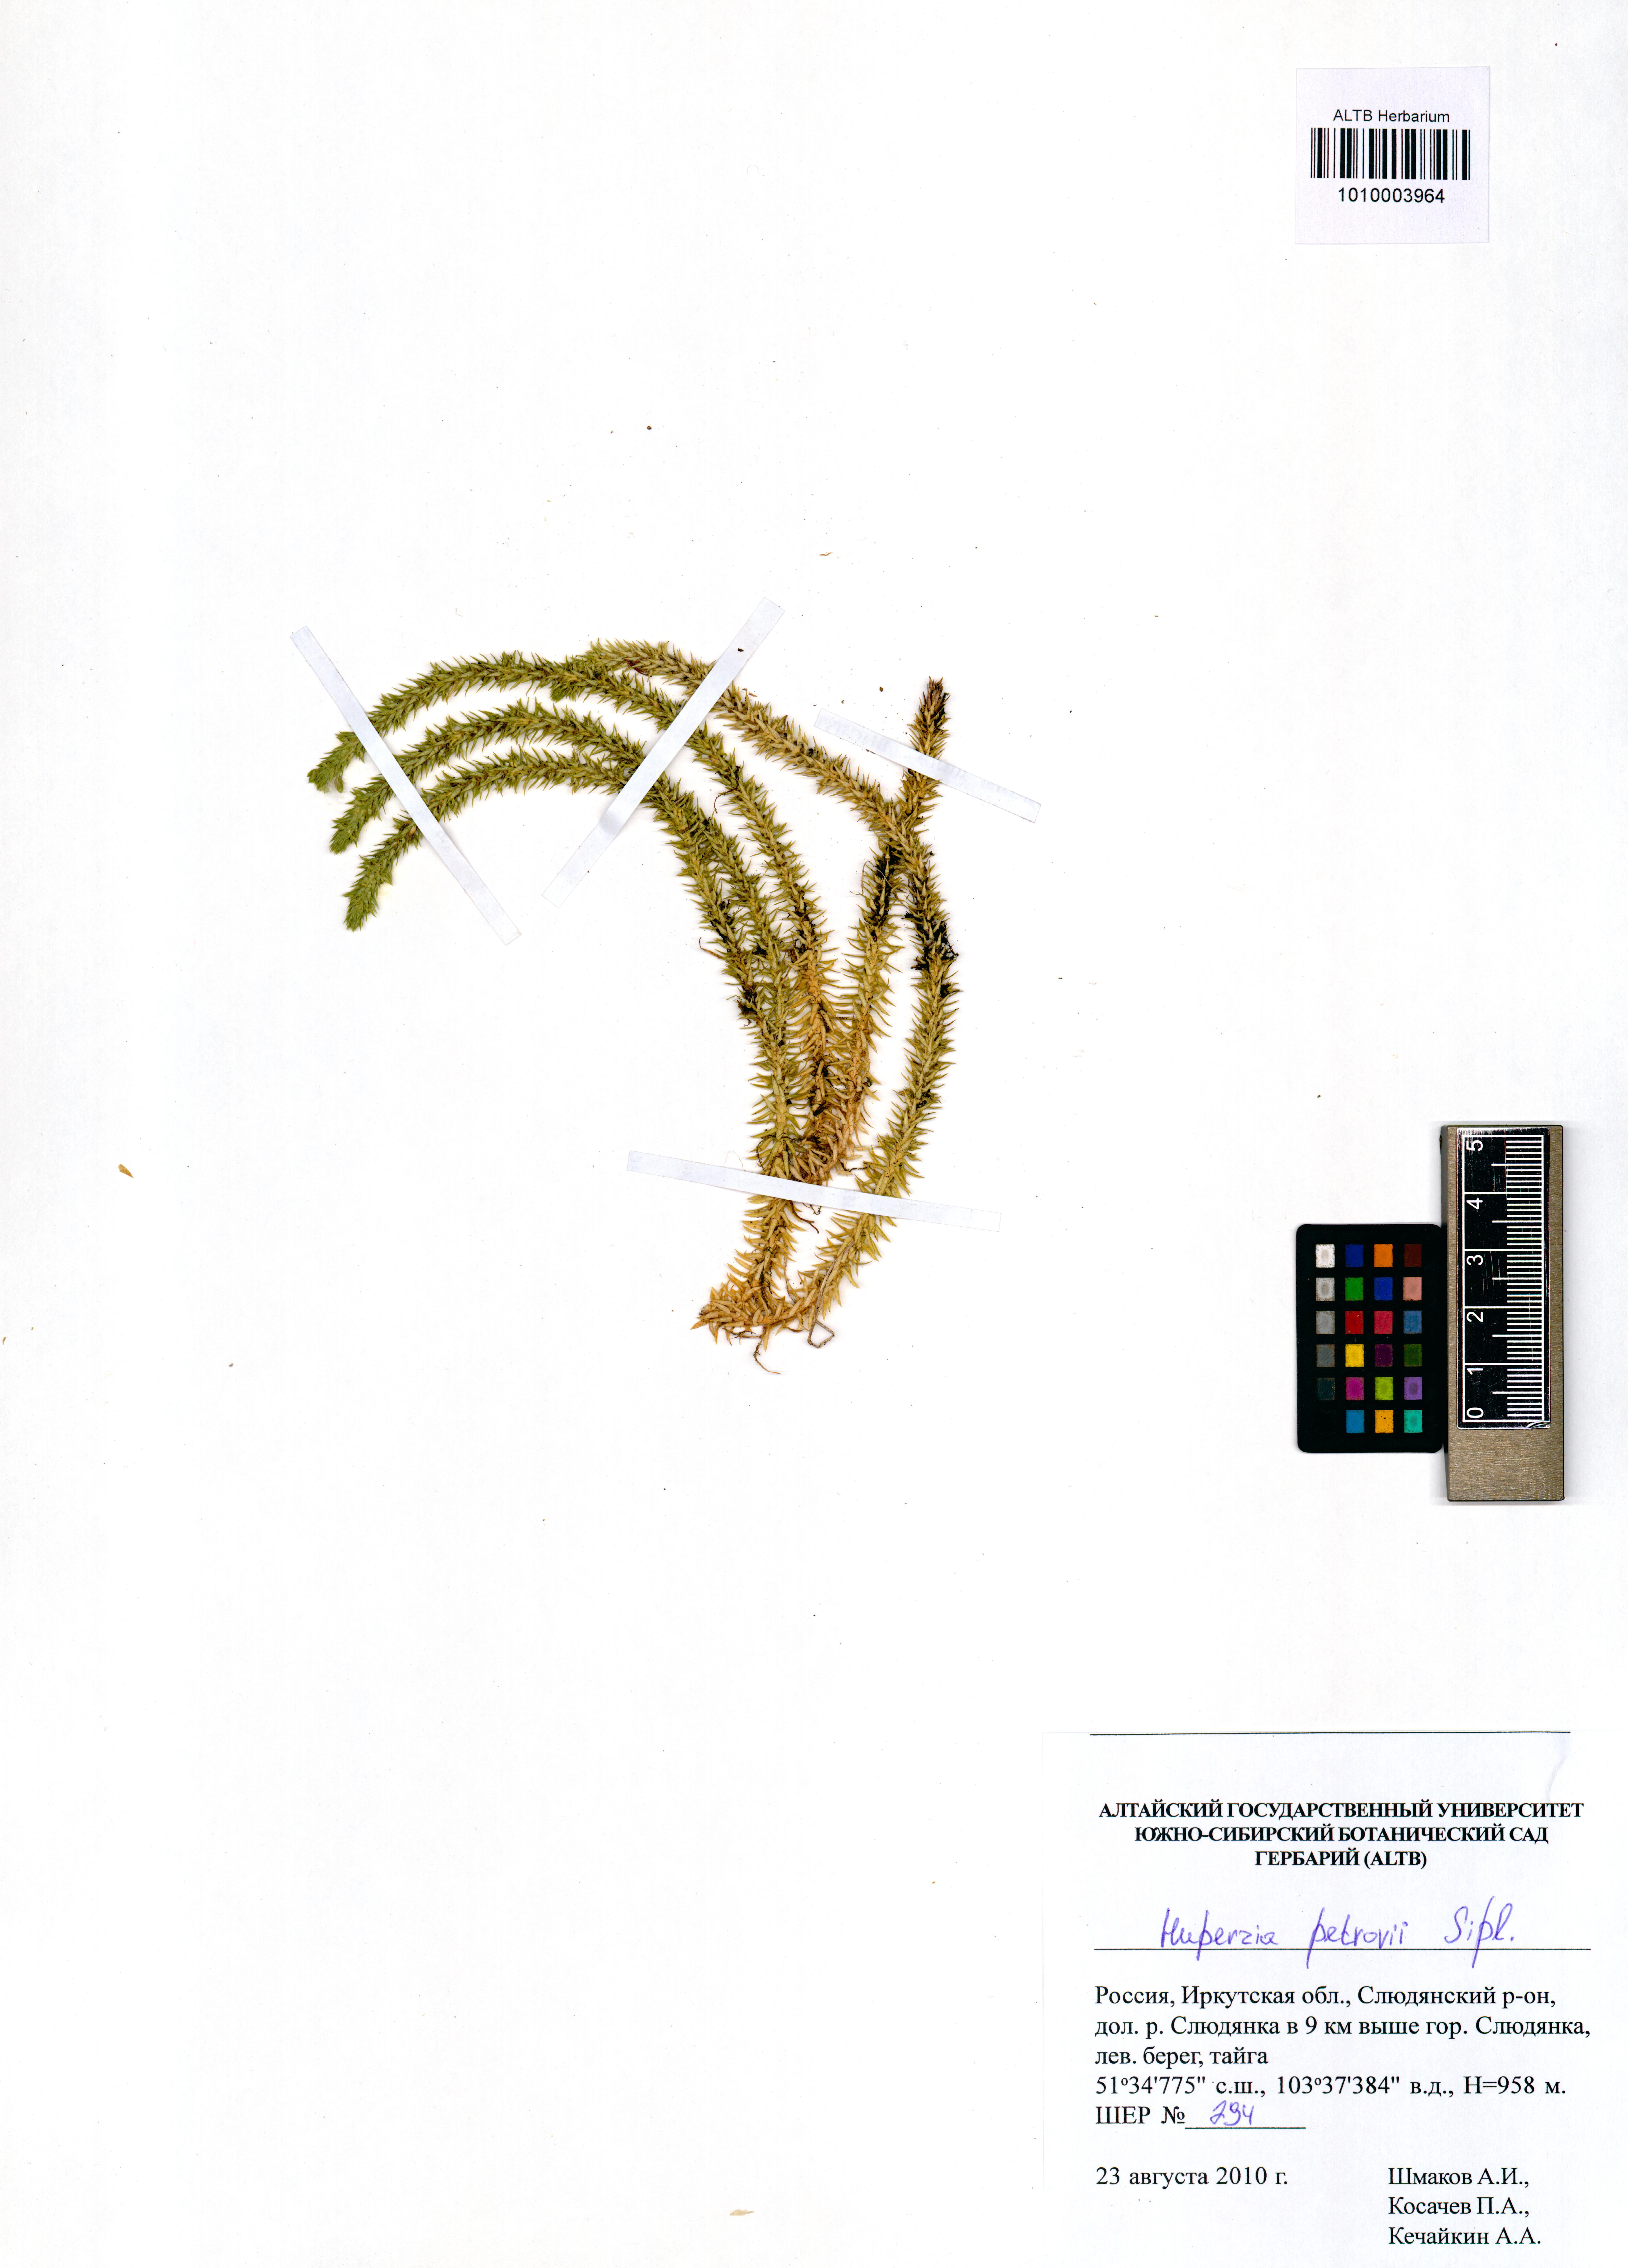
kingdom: Plantae
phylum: Tracheophyta
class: Lycopodiopsida
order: Lycopodiales
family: Lycopodiaceae
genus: Huperzia
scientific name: Huperzia selago
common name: Northern firmoss
